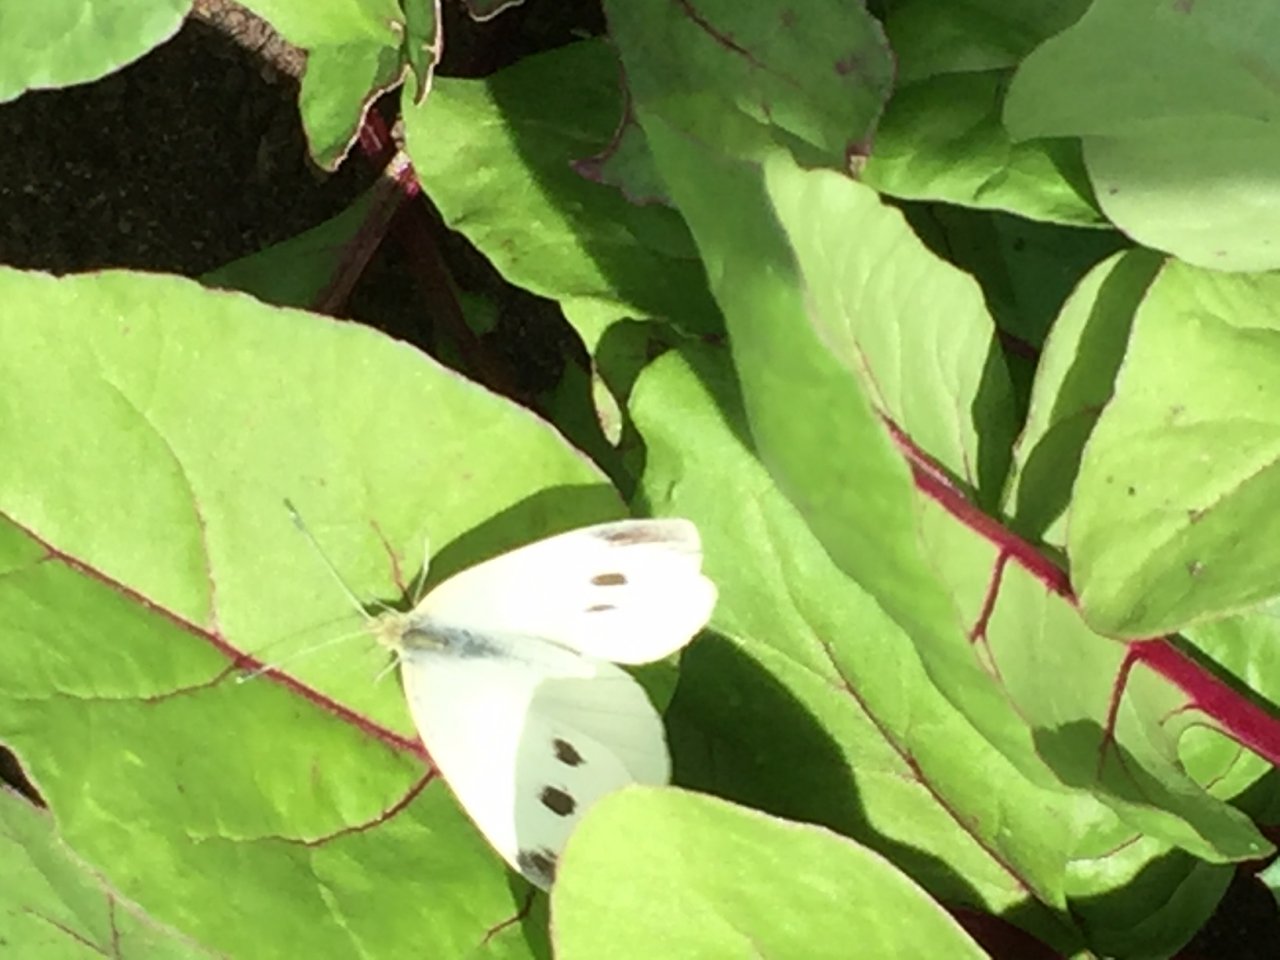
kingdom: Animalia
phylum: Arthropoda
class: Insecta
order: Lepidoptera
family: Pieridae
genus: Pieris
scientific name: Pieris rapae
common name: Cabbage White
